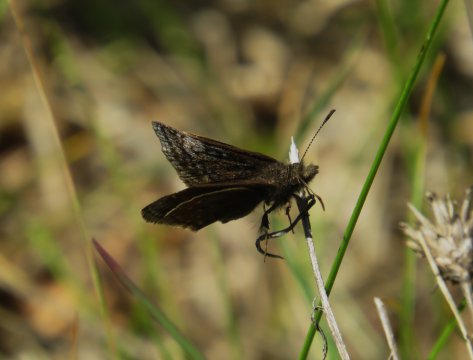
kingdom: Animalia
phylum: Arthropoda
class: Insecta
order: Lepidoptera
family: Hesperiidae
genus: Erynnis
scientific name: Erynnis icelus
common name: Dreamy Duskywing
